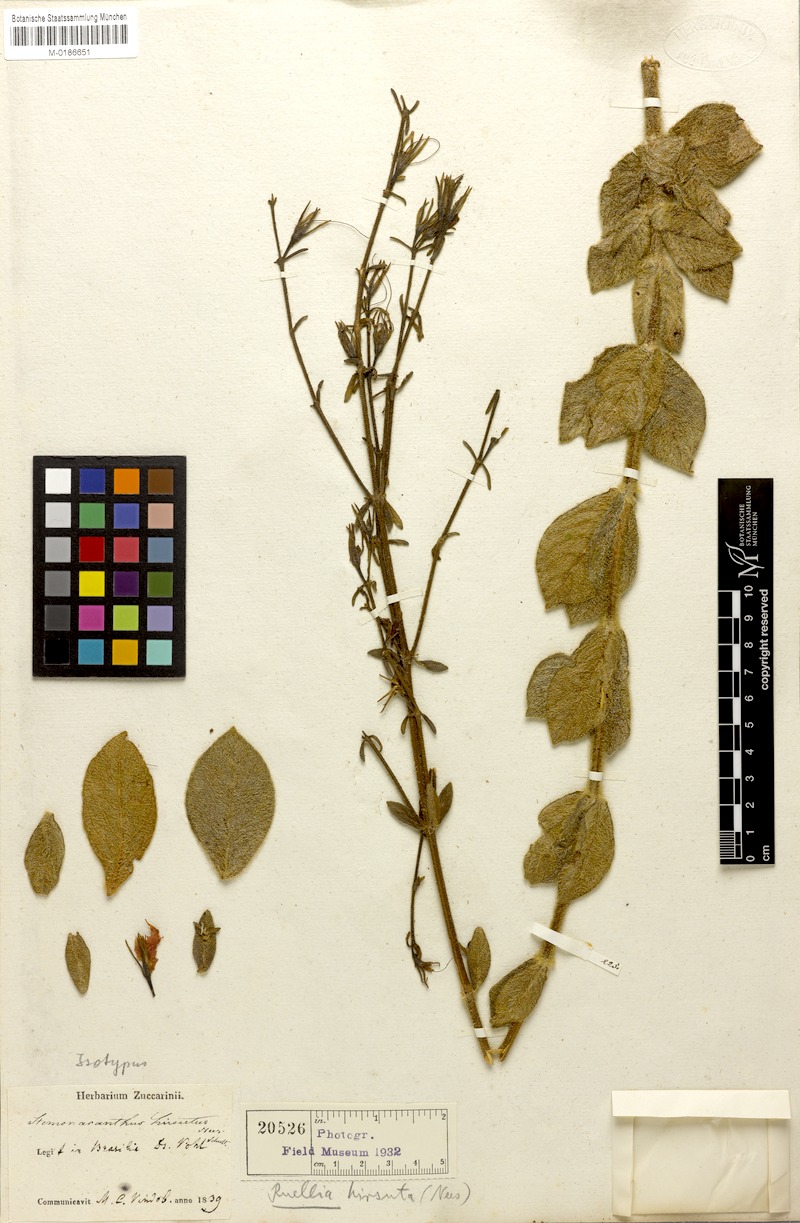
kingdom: Plantae
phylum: Tracheophyta
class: Magnoliopsida
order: Lamiales
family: Acanthaceae
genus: Strobilanthes
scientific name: Strobilanthes brunelloides
